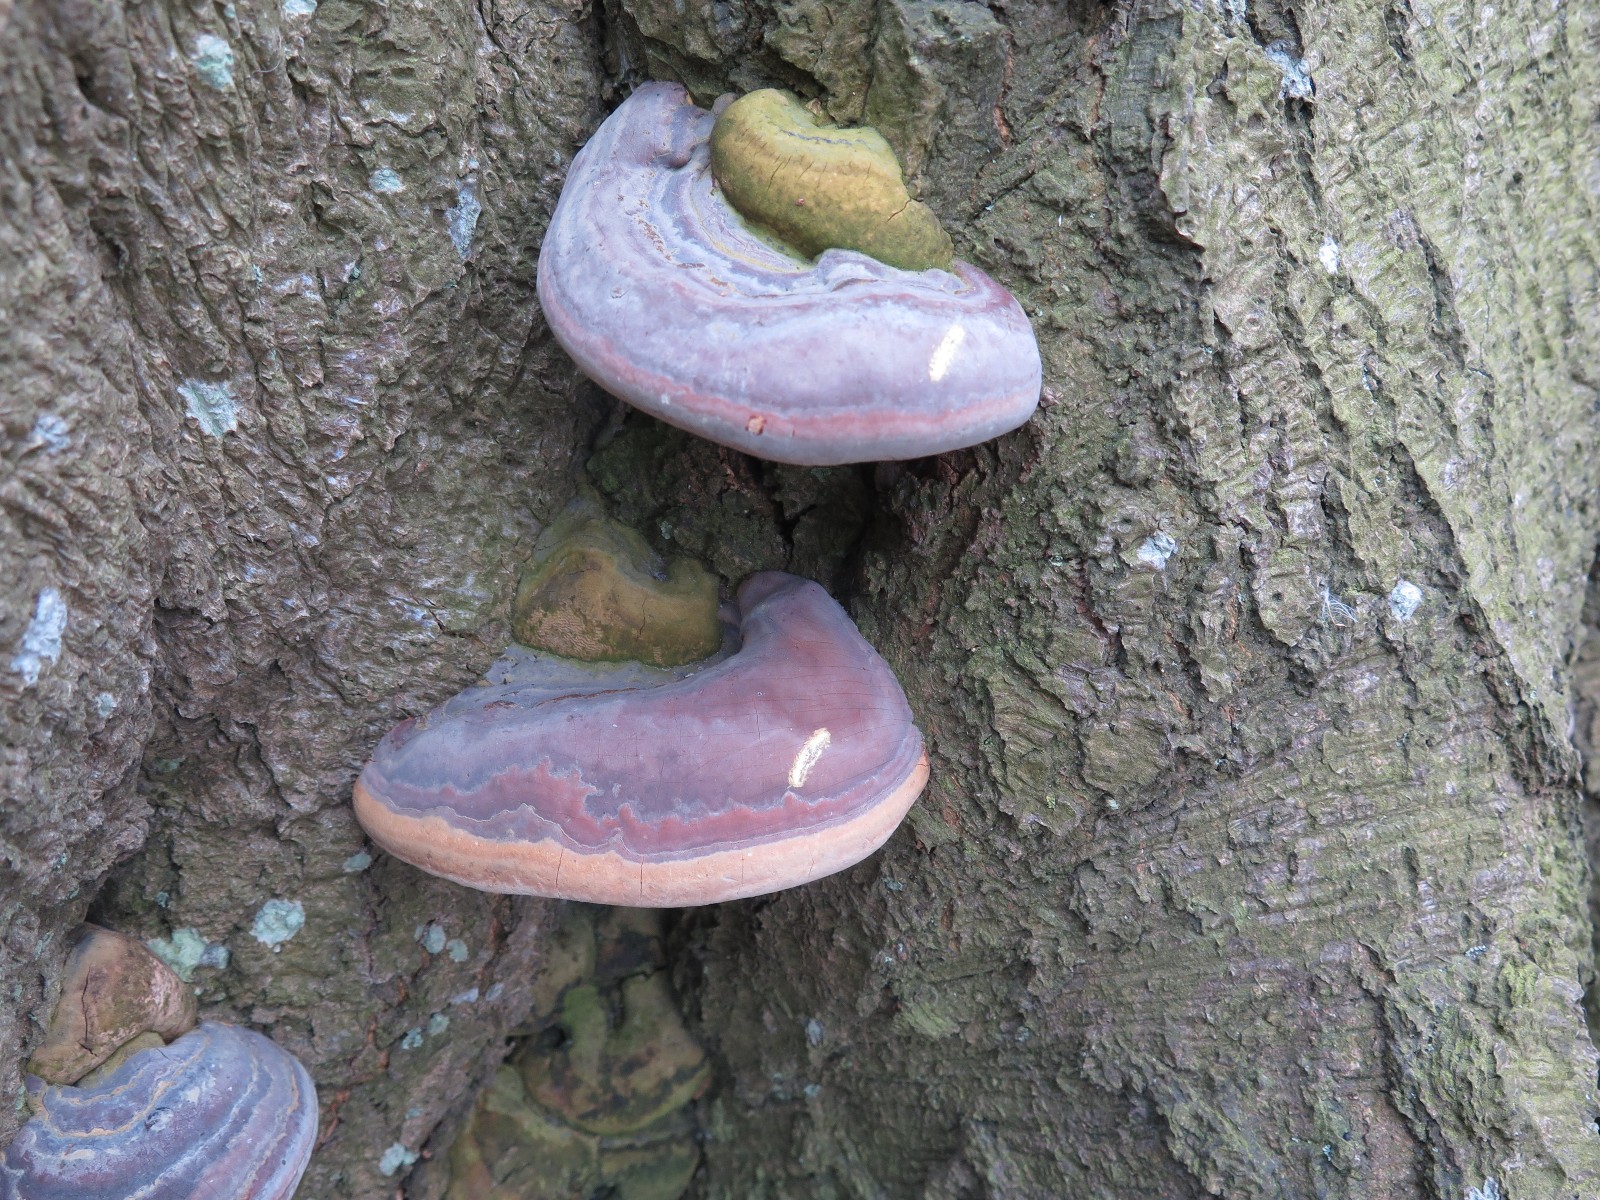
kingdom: Fungi
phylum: Basidiomycota
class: Agaricomycetes
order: Polyporales
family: Polyporaceae
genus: Ganoderma
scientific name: Ganoderma pfeifferi
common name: kobberrød lakporesvamp
